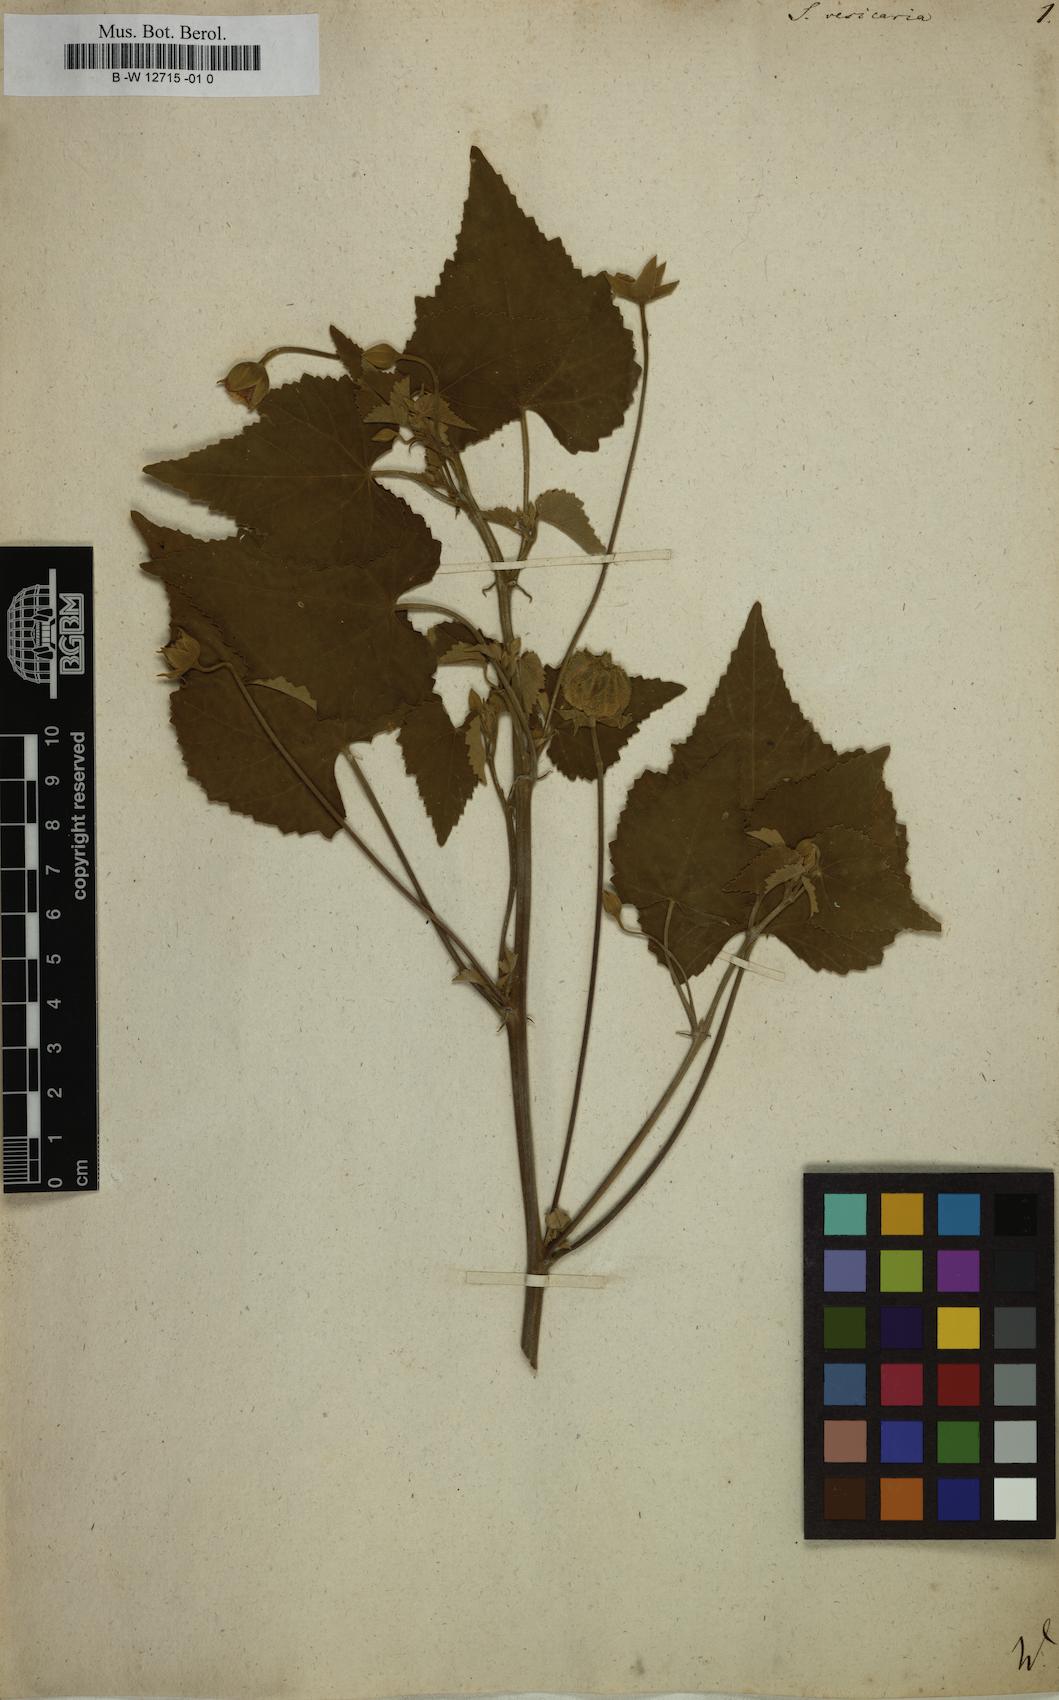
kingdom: Plantae
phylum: Tracheophyta
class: Magnoliopsida
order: Malvales
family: Malvaceae
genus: Abutilon
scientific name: Abutilon indicum
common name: Indian abutilon
